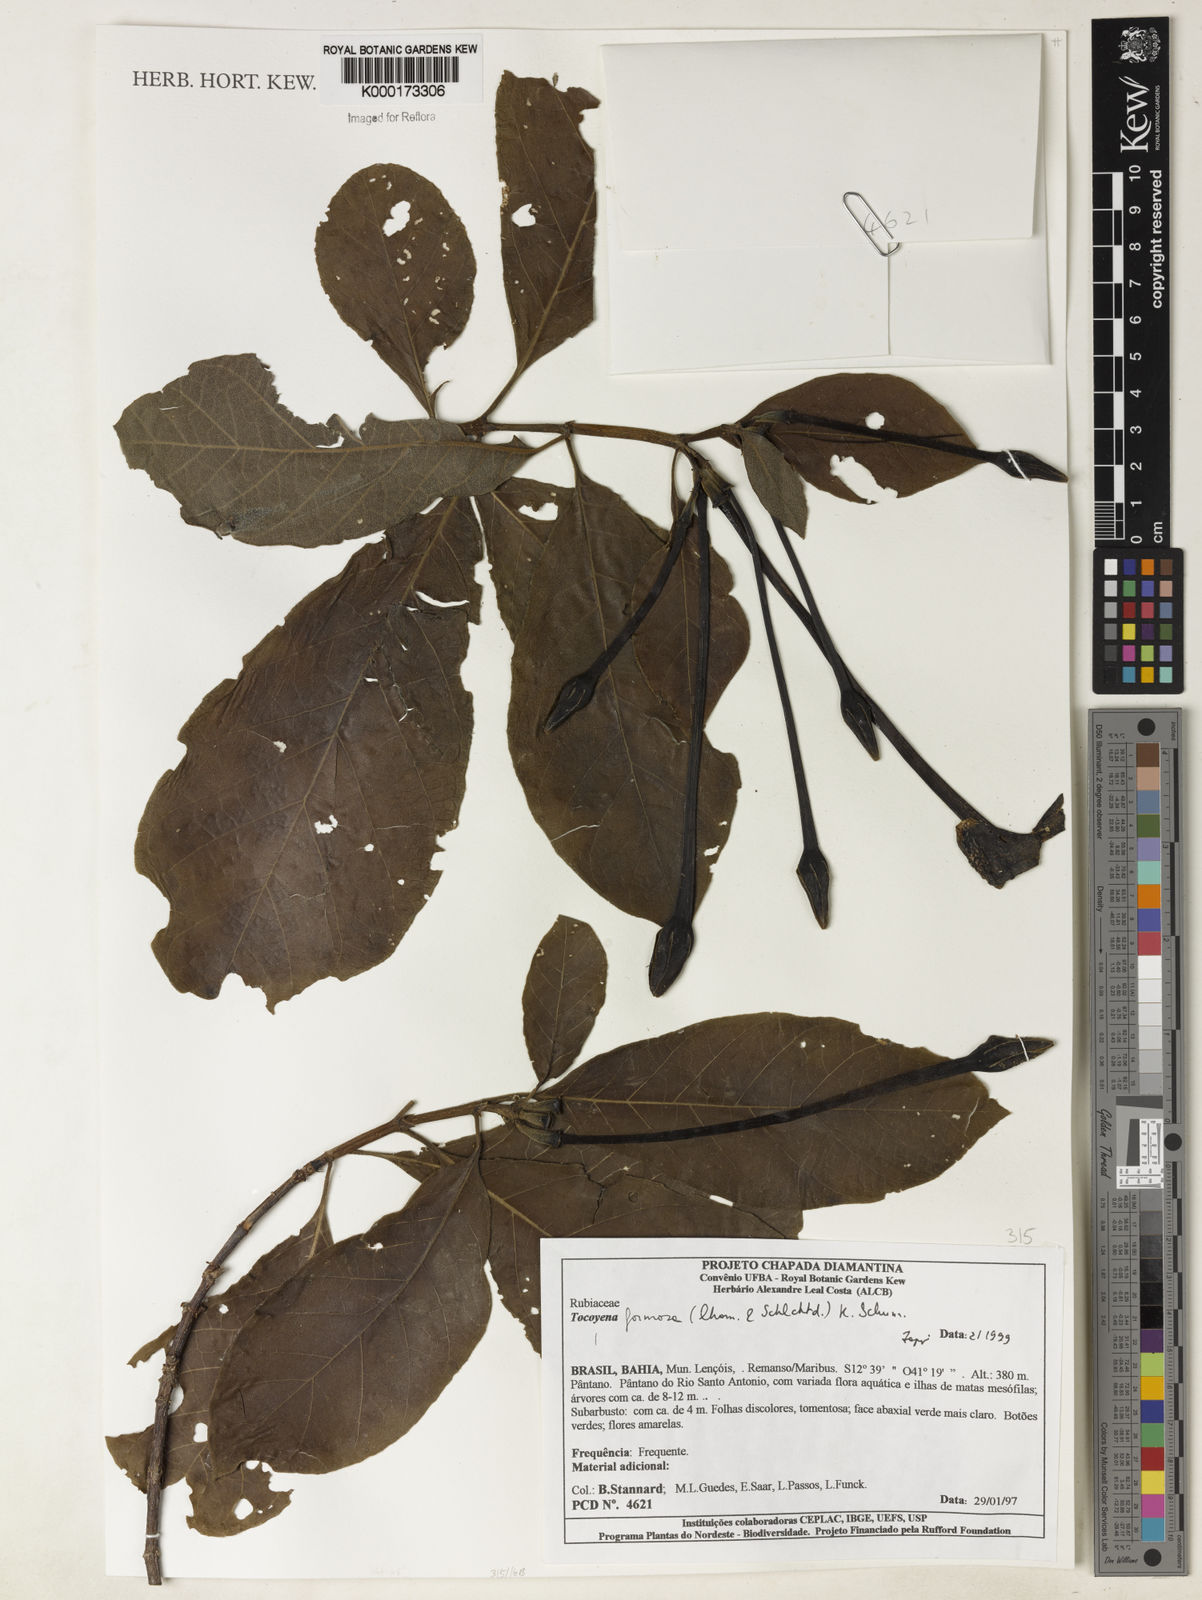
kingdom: Plantae
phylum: Tracheophyta
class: Magnoliopsida
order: Gentianales
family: Rubiaceae
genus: Tocoyena
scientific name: Tocoyena formosa
